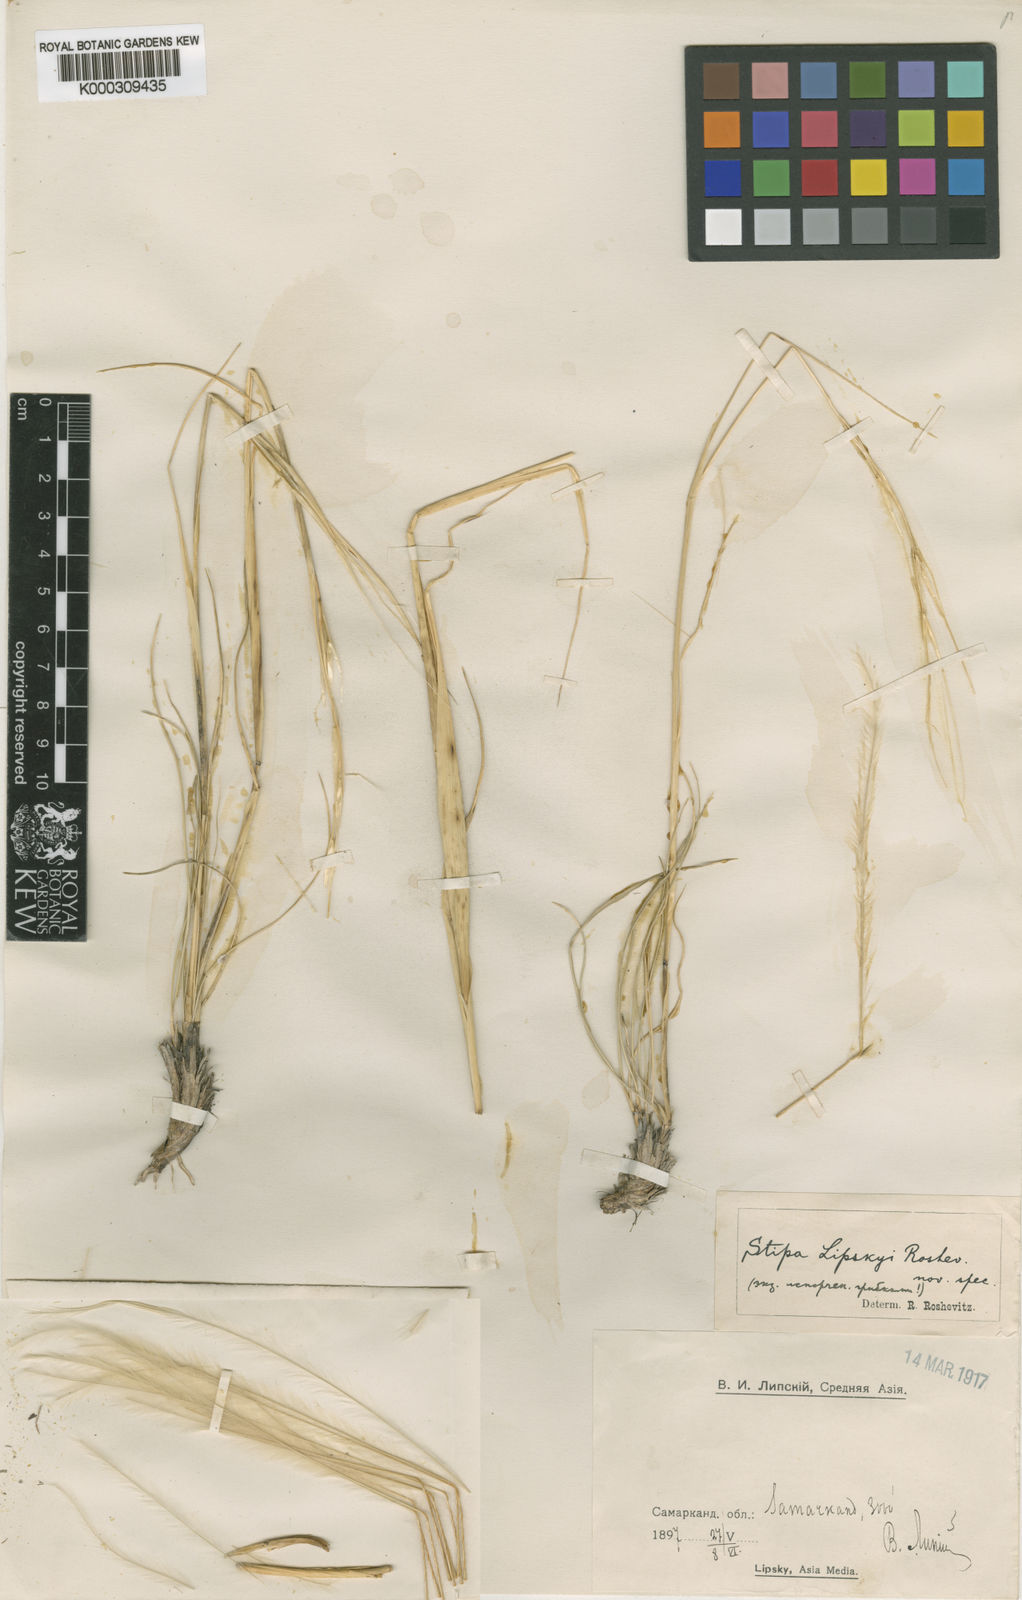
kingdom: Plantae
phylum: Tracheophyta
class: Liliopsida
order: Poales
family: Poaceae
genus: Stipa
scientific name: Stipa lipskyi
